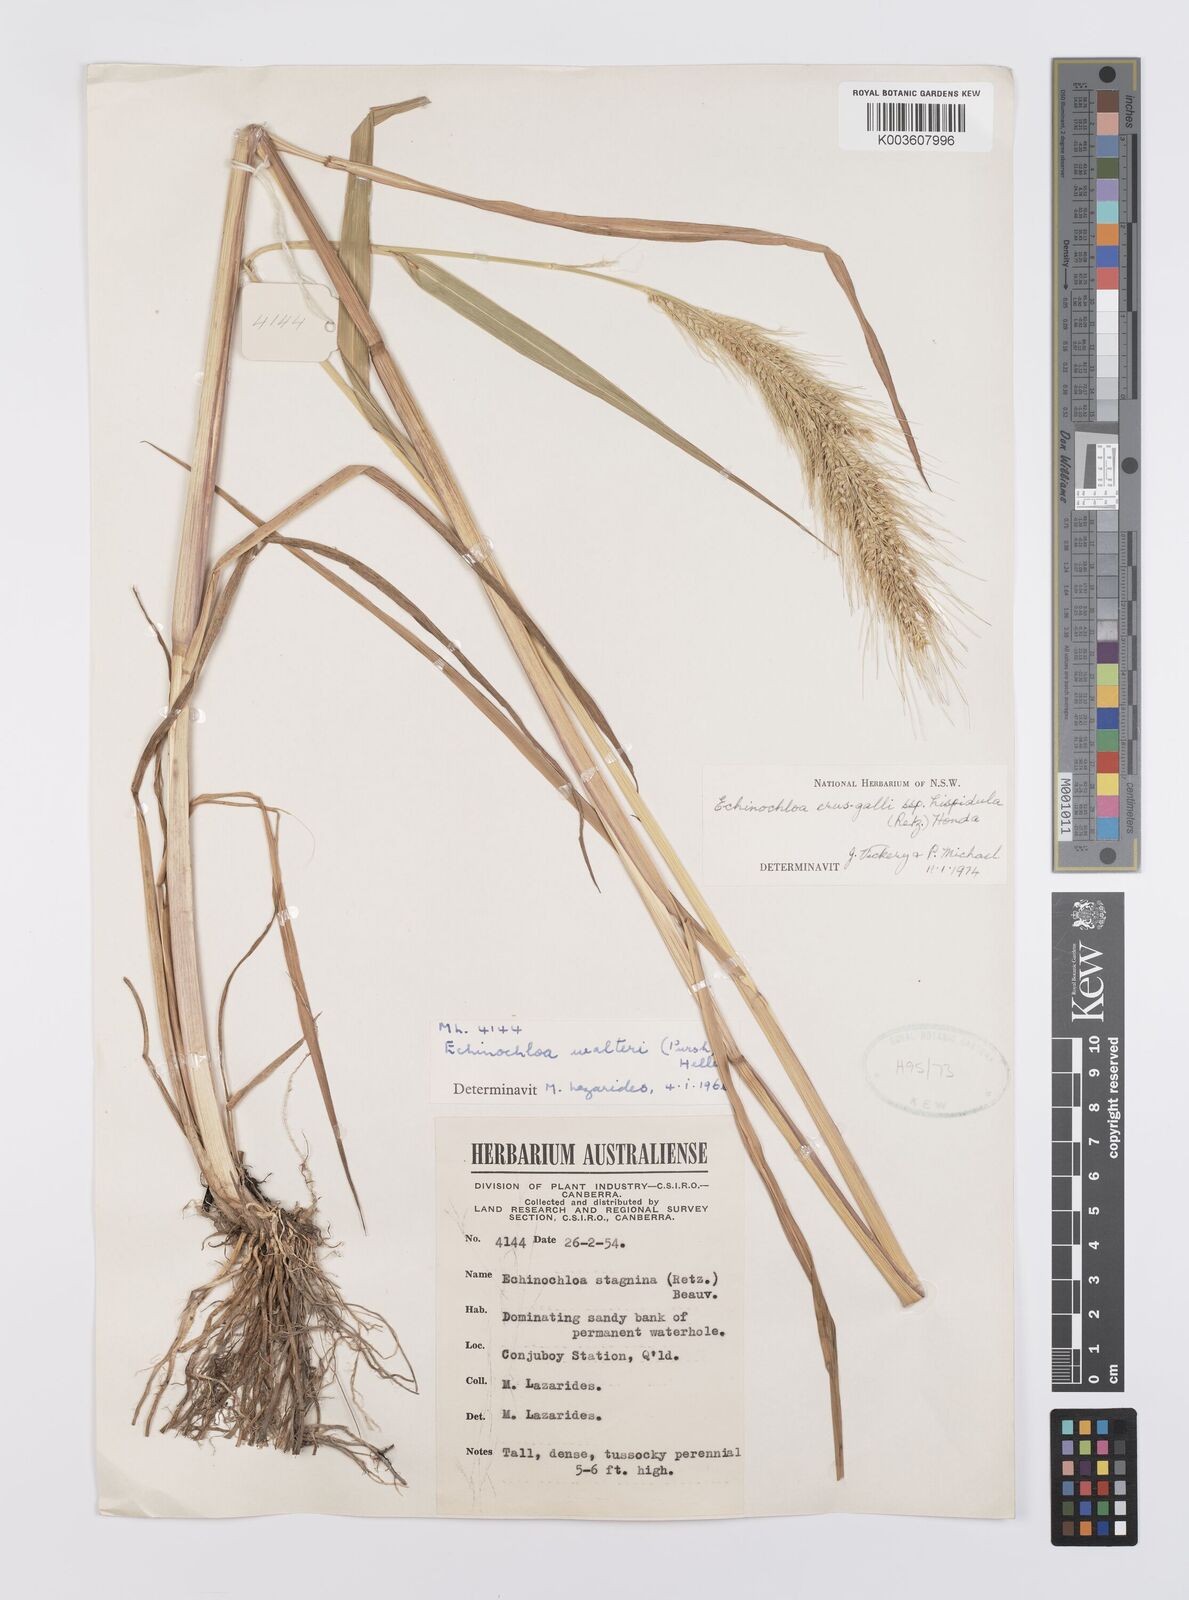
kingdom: Plantae
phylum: Tracheophyta
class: Liliopsida
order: Poales
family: Poaceae
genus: Echinochloa
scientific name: Echinochloa crus-galli
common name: Cockspur
